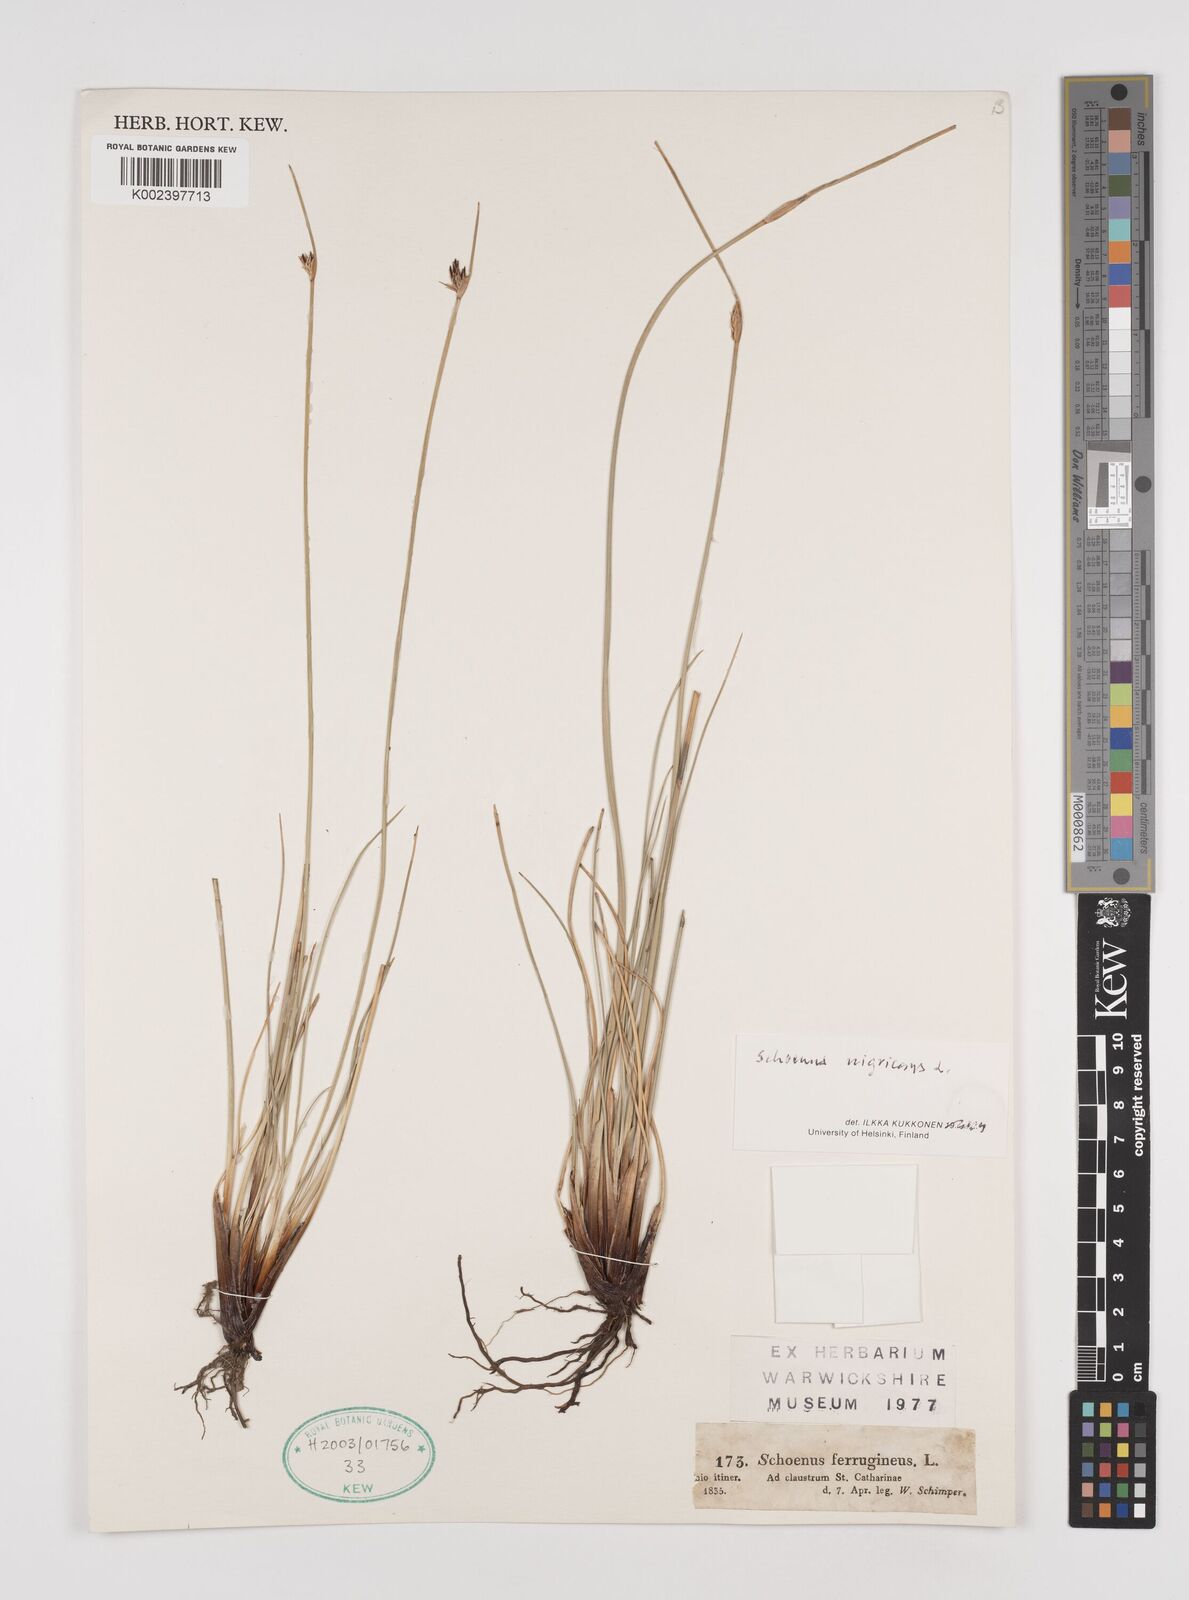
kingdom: Plantae
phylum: Tracheophyta
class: Liliopsida
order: Poales
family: Cyperaceae
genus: Schoenus
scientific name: Schoenus nigricans
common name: Black bog-rush
